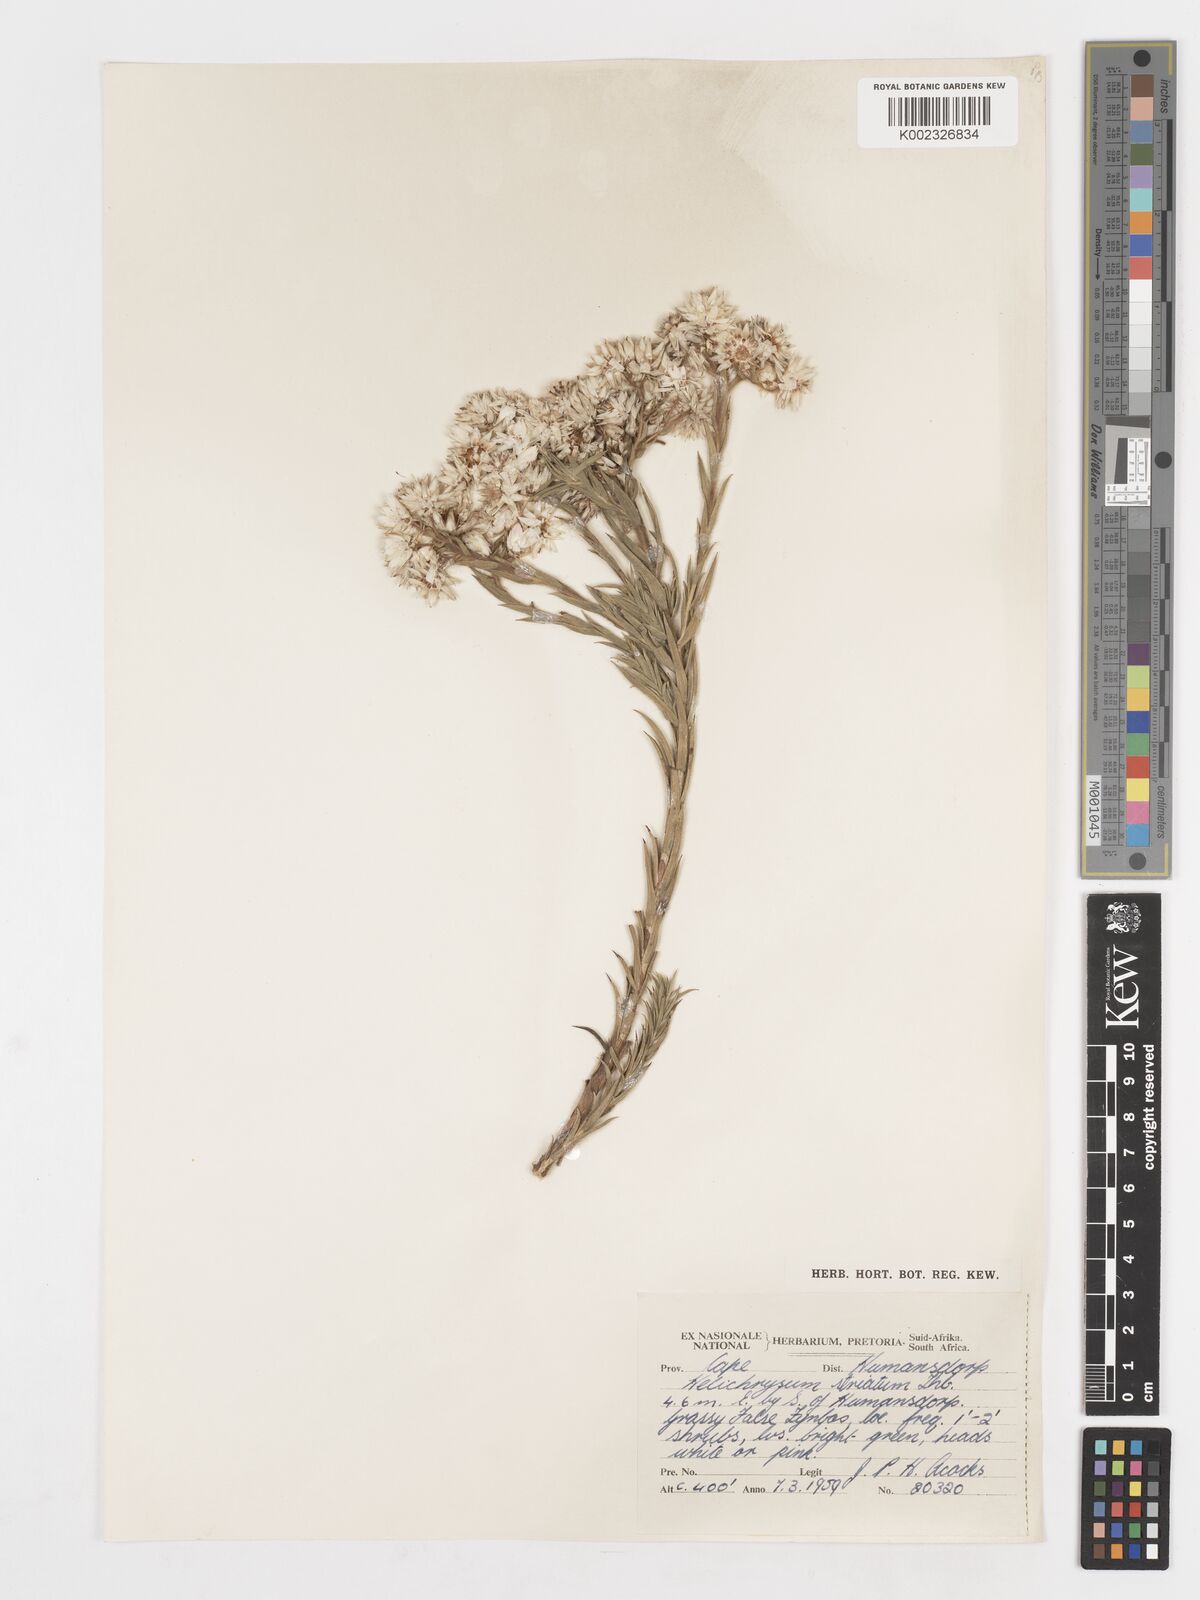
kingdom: Plantae
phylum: Tracheophyta
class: Magnoliopsida
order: Asterales
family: Asteraceae
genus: Achyranthemum
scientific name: Achyranthemum striatum
